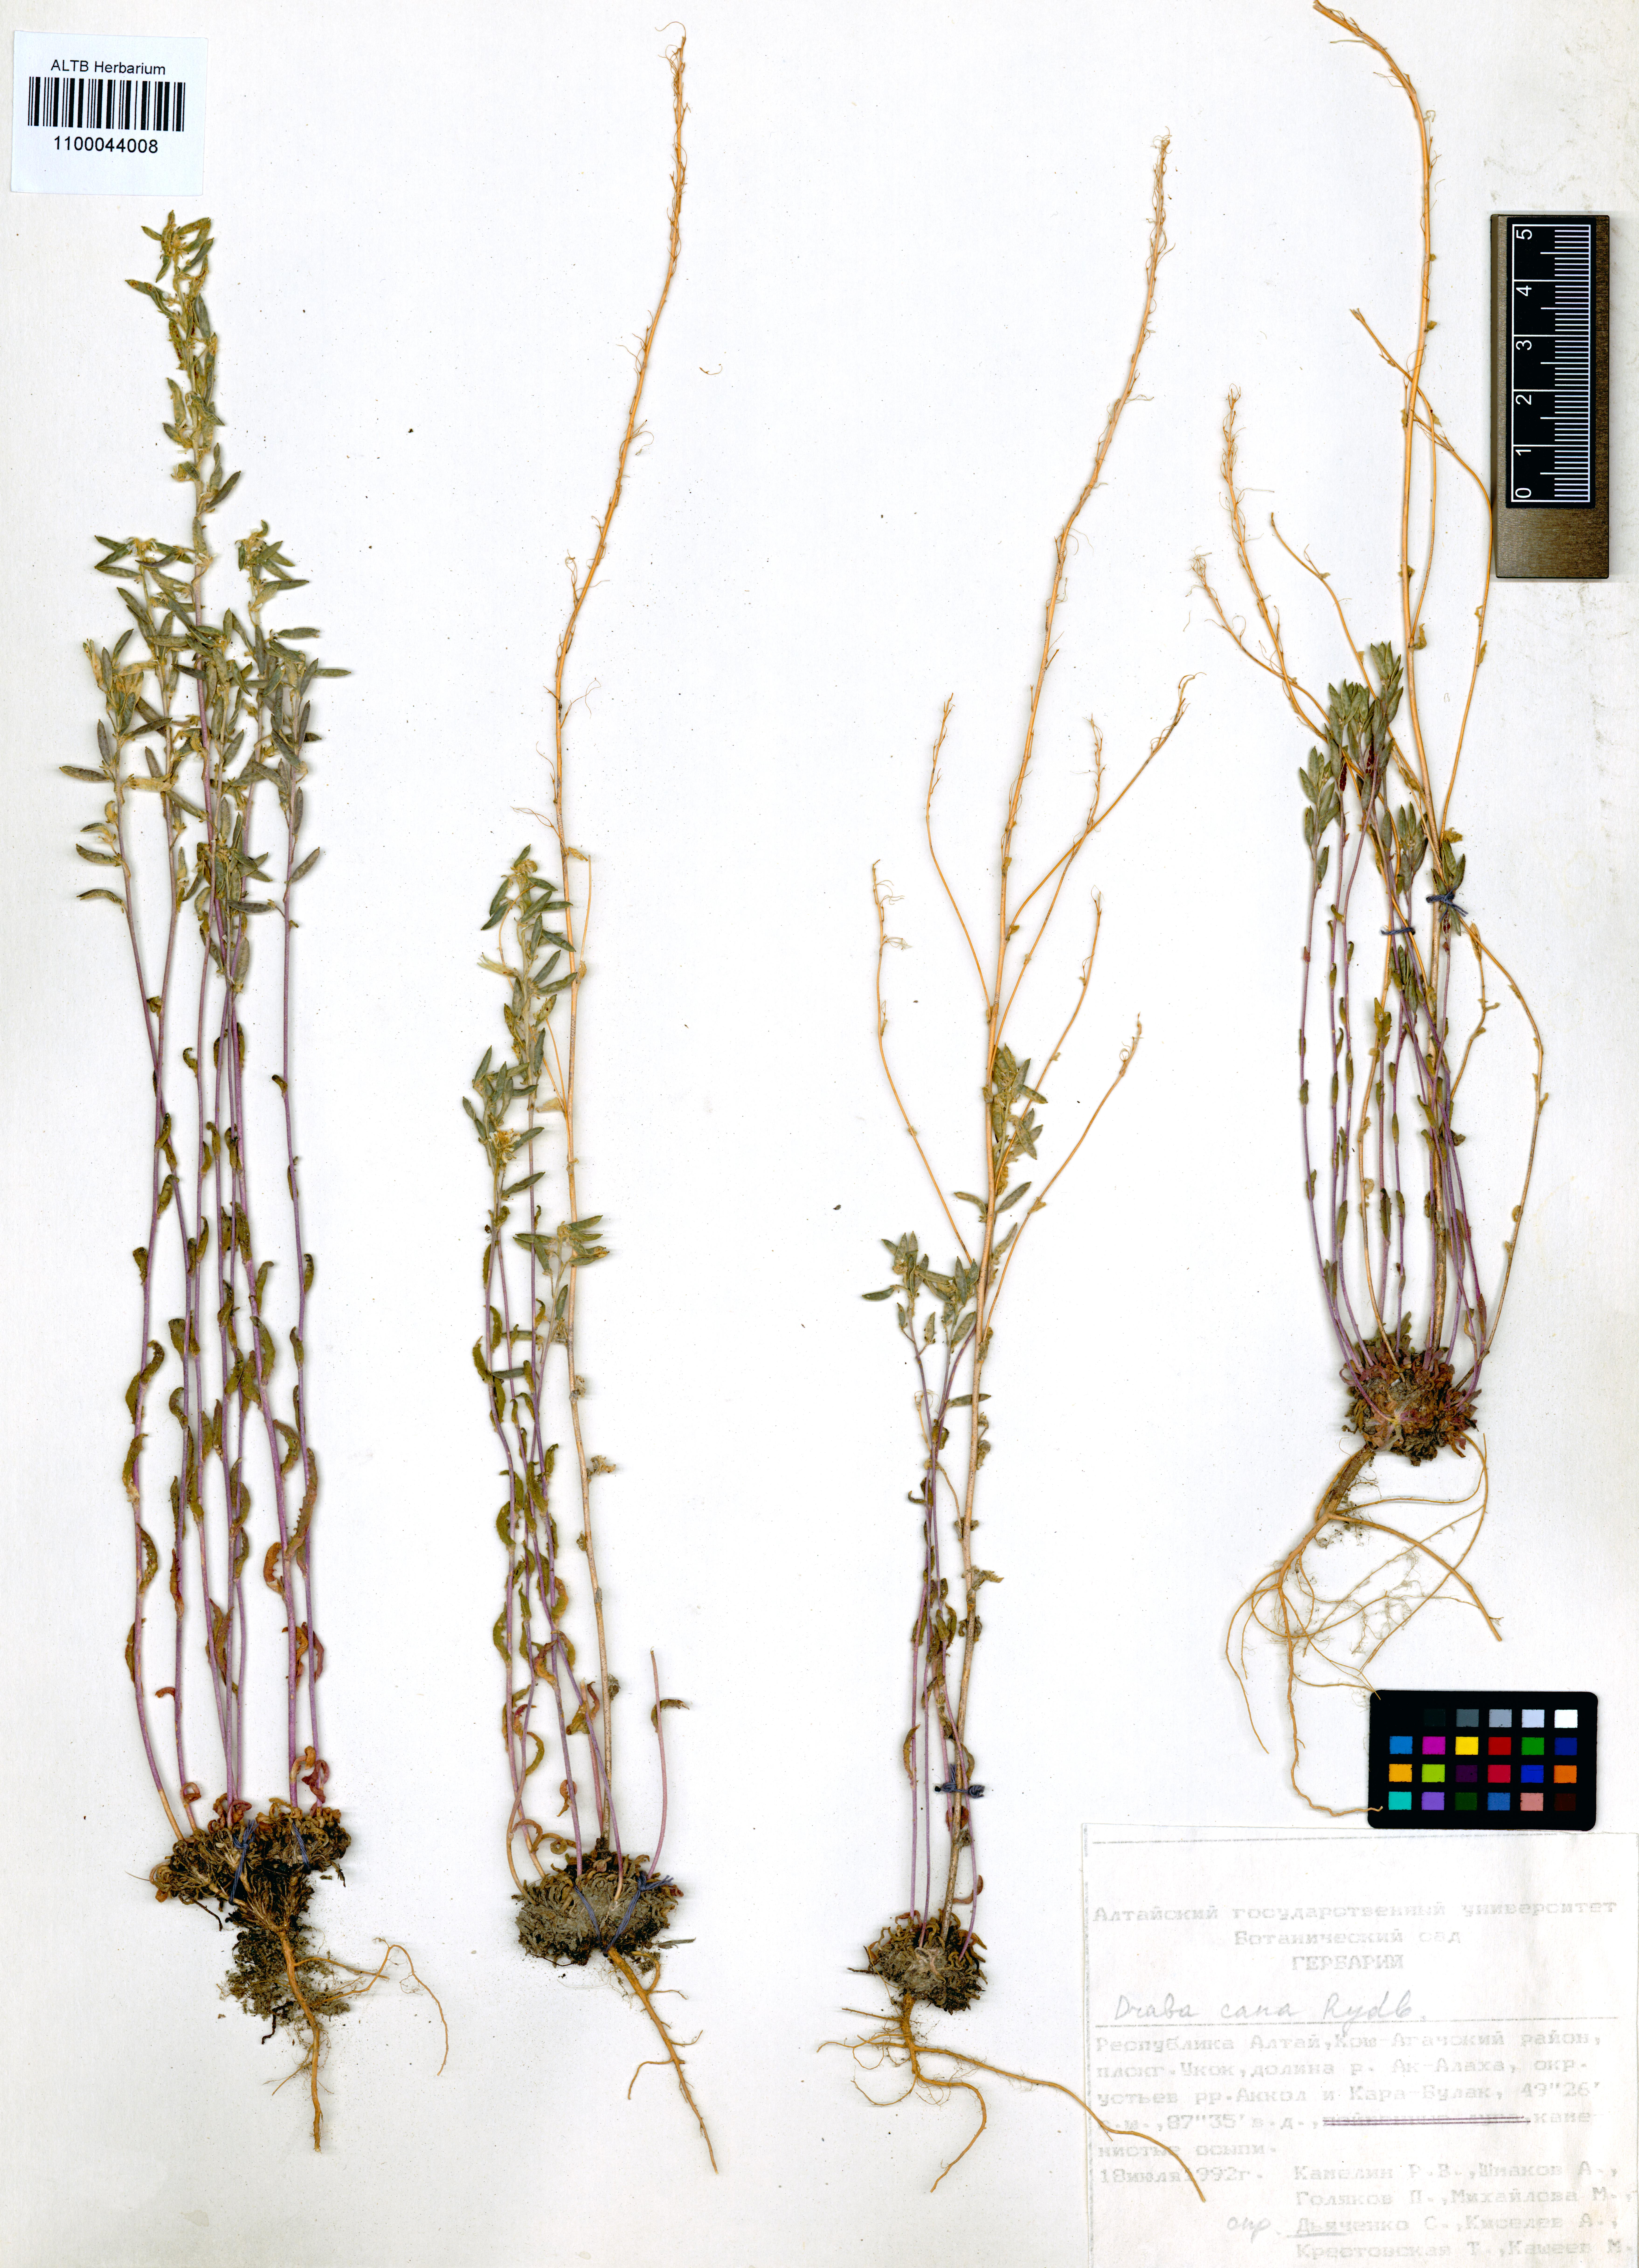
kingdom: Plantae
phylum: Tracheophyta
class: Magnoliopsida
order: Brassicales
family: Brassicaceae
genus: Draba
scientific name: Draba cana
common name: Hoary draba
